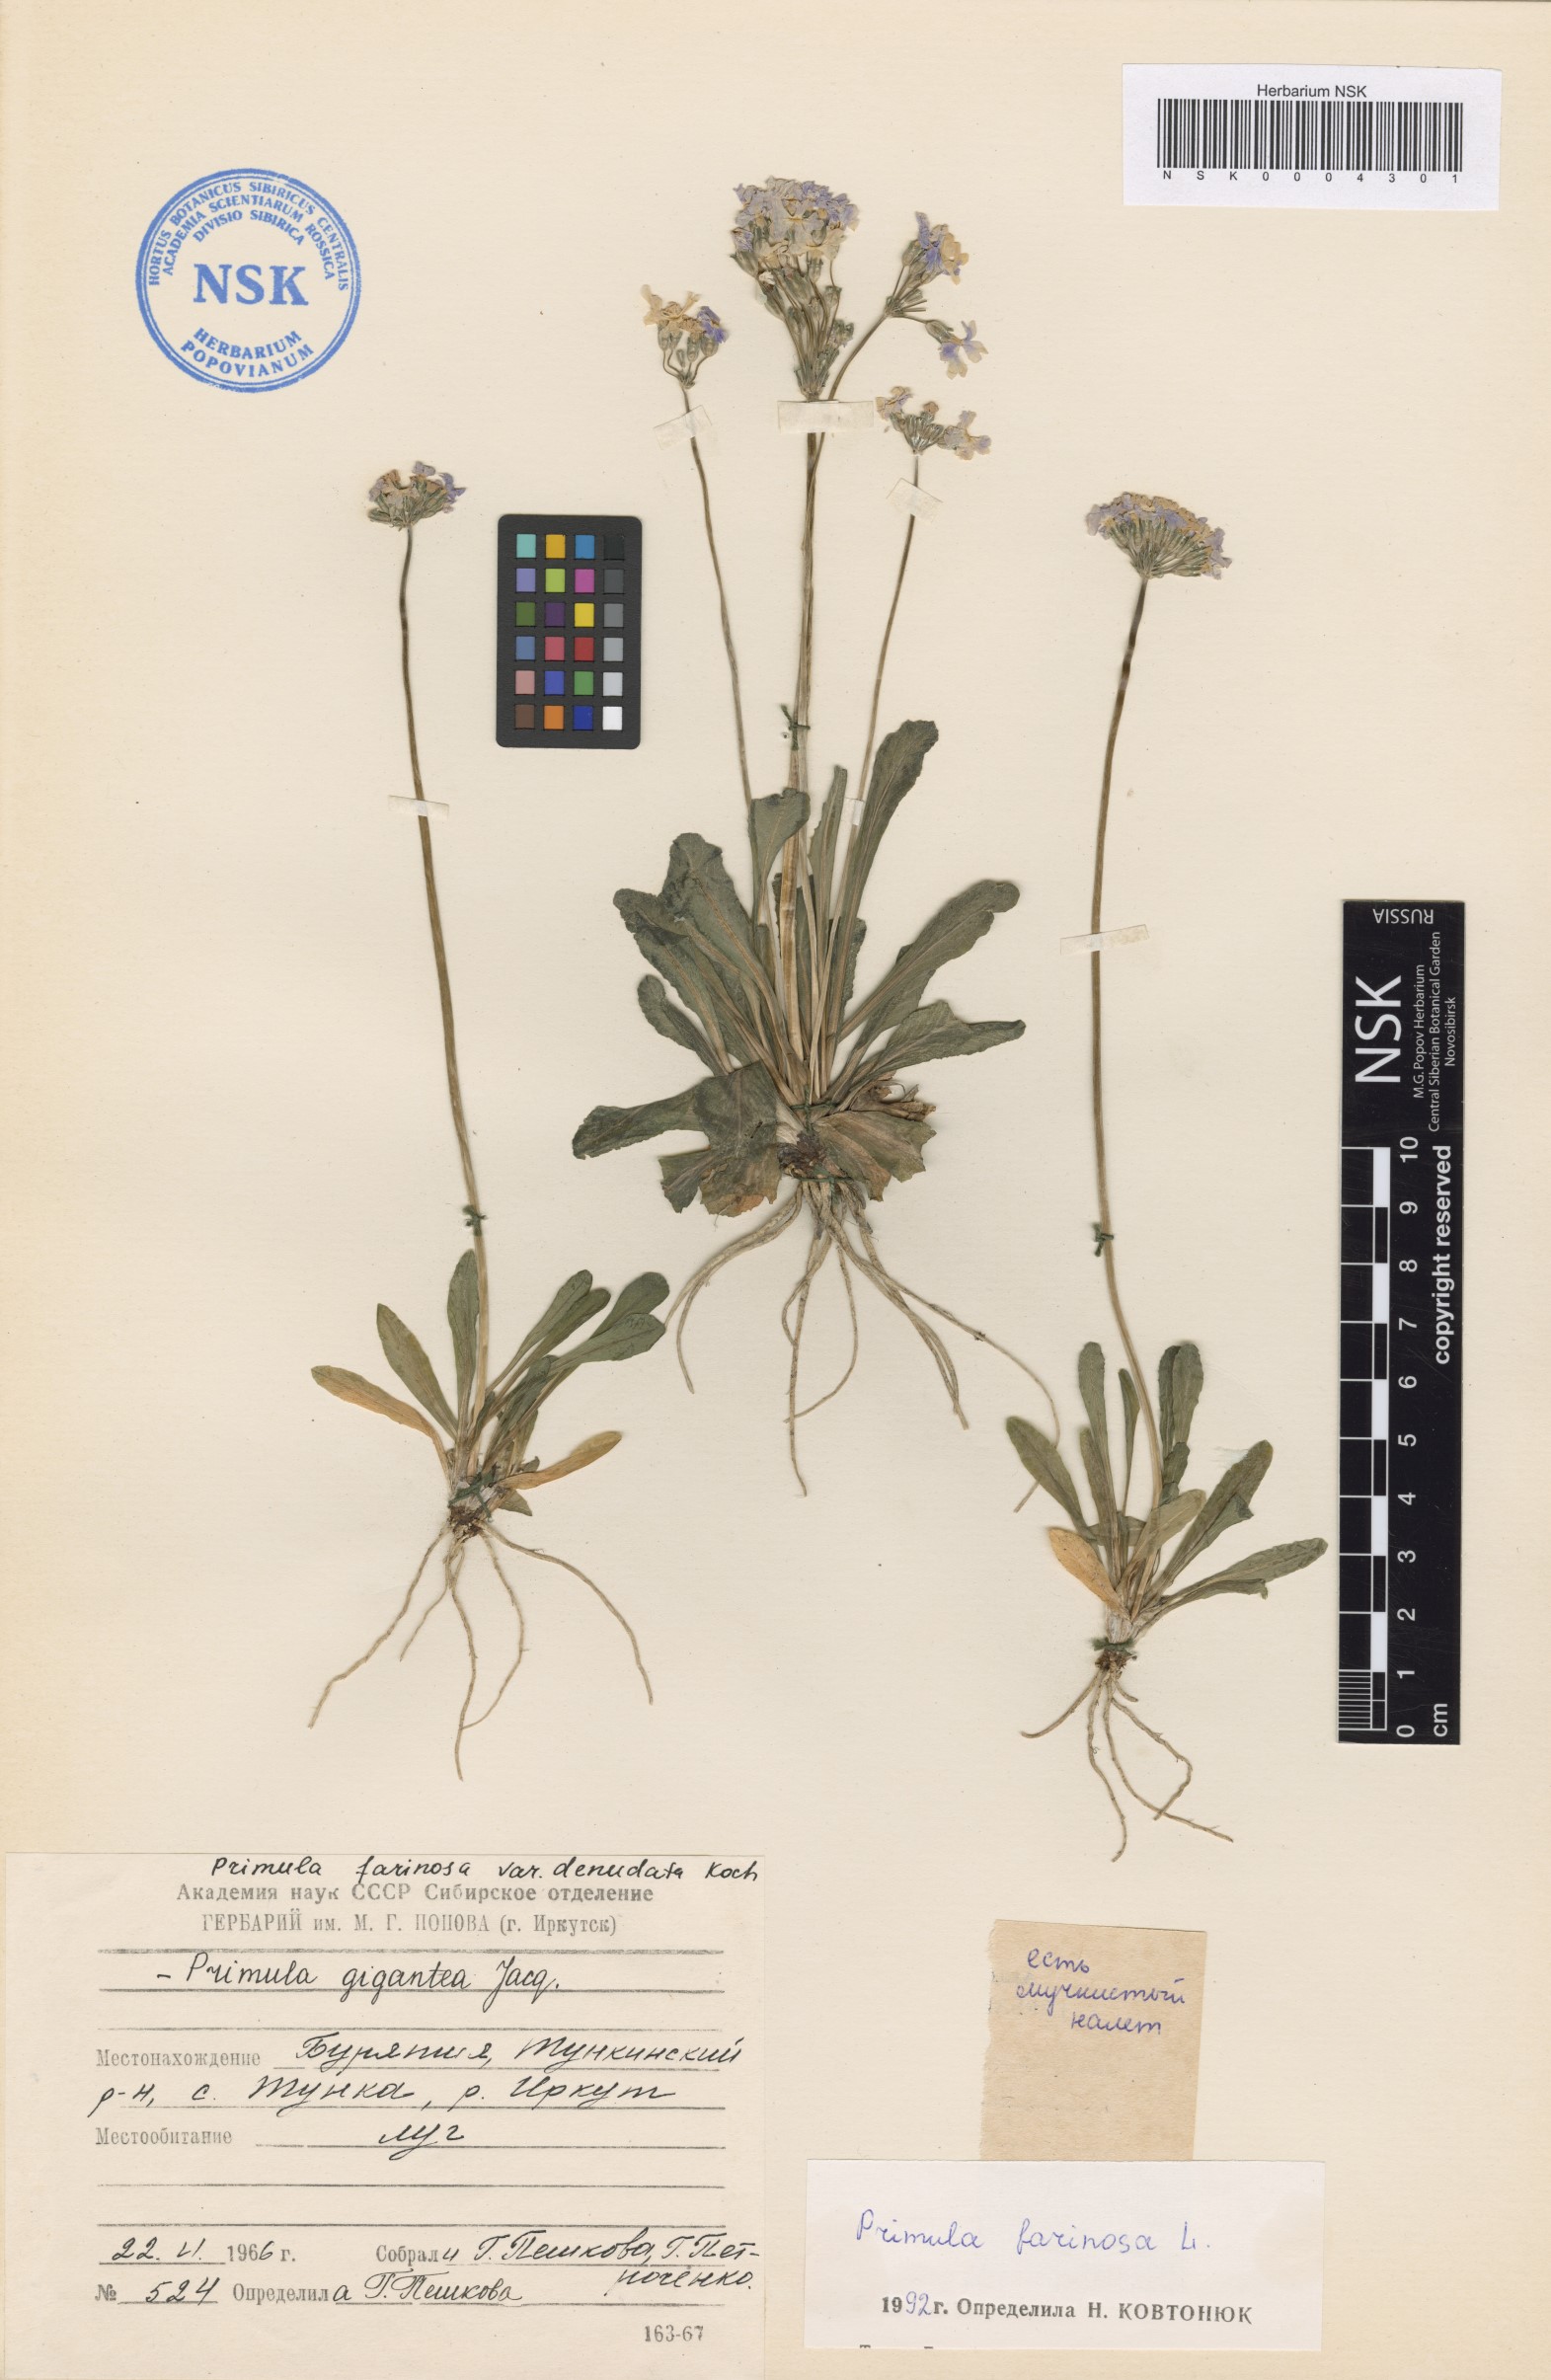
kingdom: Plantae
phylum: Tracheophyta
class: Magnoliopsida
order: Ericales
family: Primulaceae
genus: Primula
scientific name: Primula farinosa
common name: Bird's-eye primrose
